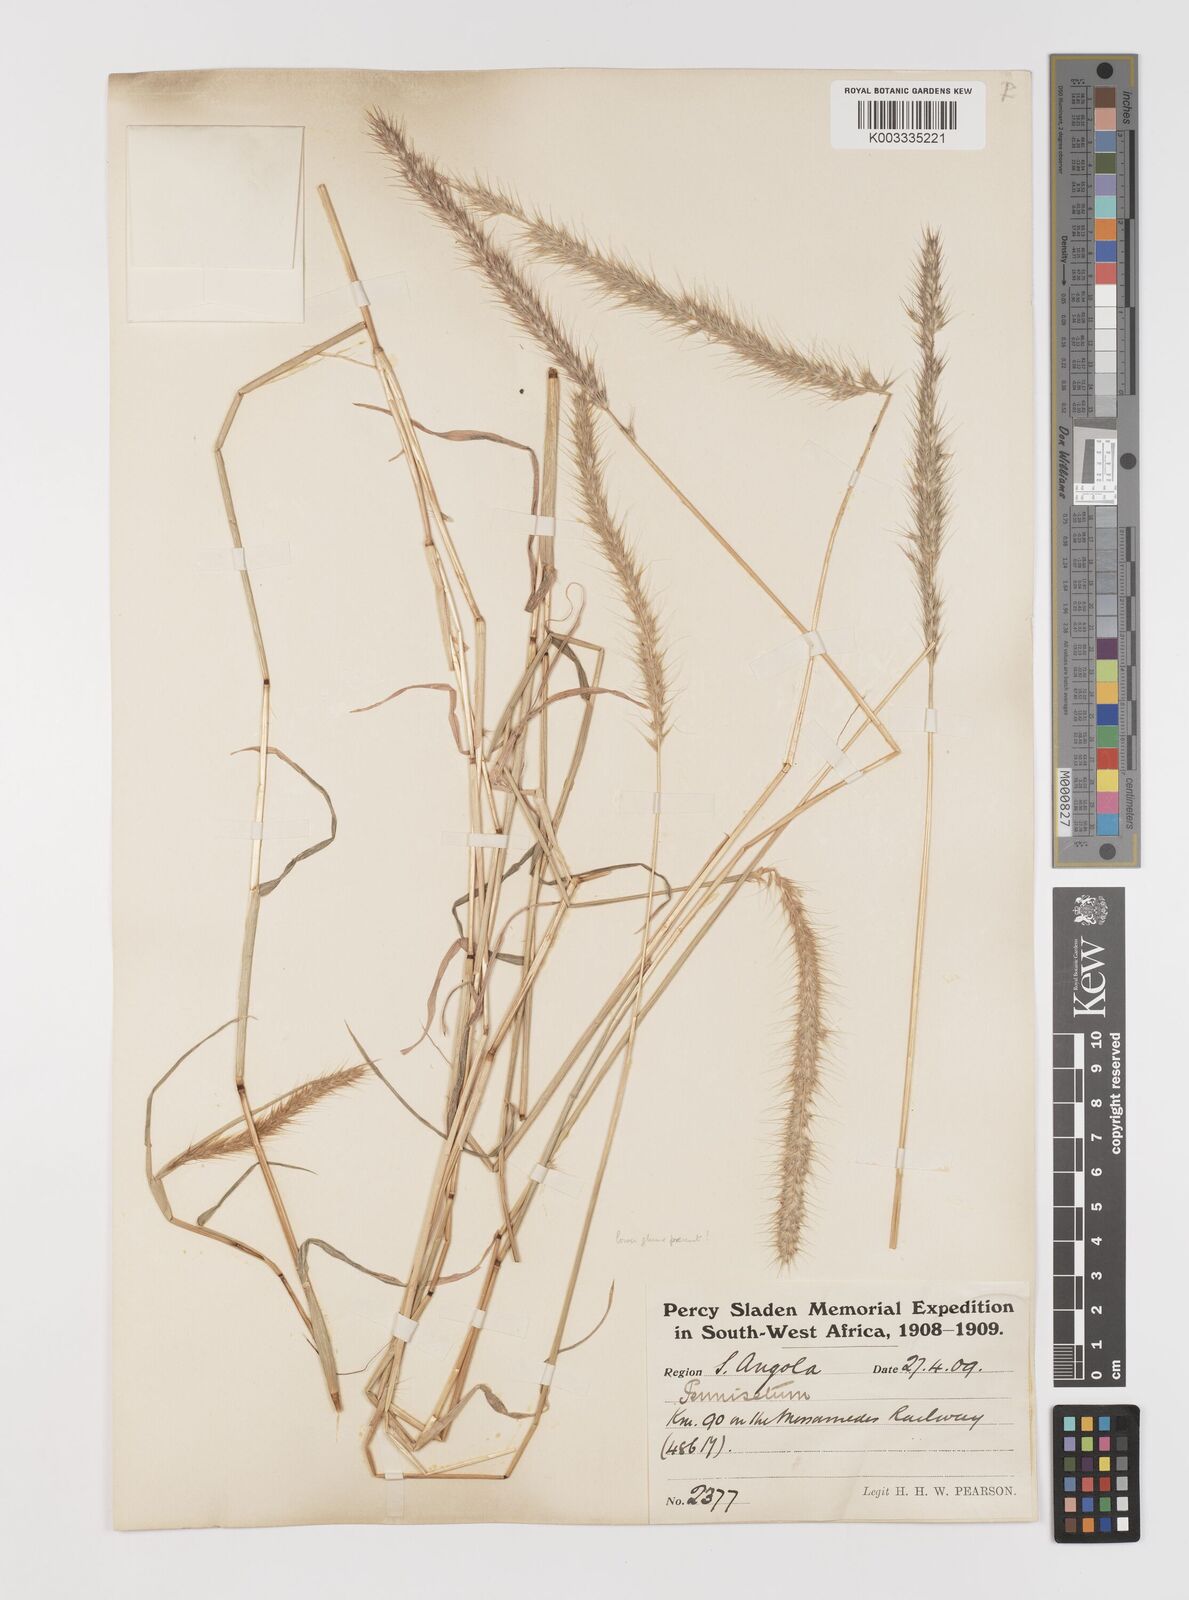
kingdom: Plantae
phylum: Tracheophyta
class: Liliopsida
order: Poales
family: Poaceae
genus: Monelytrum
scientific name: Monelytrum luederitzianum
